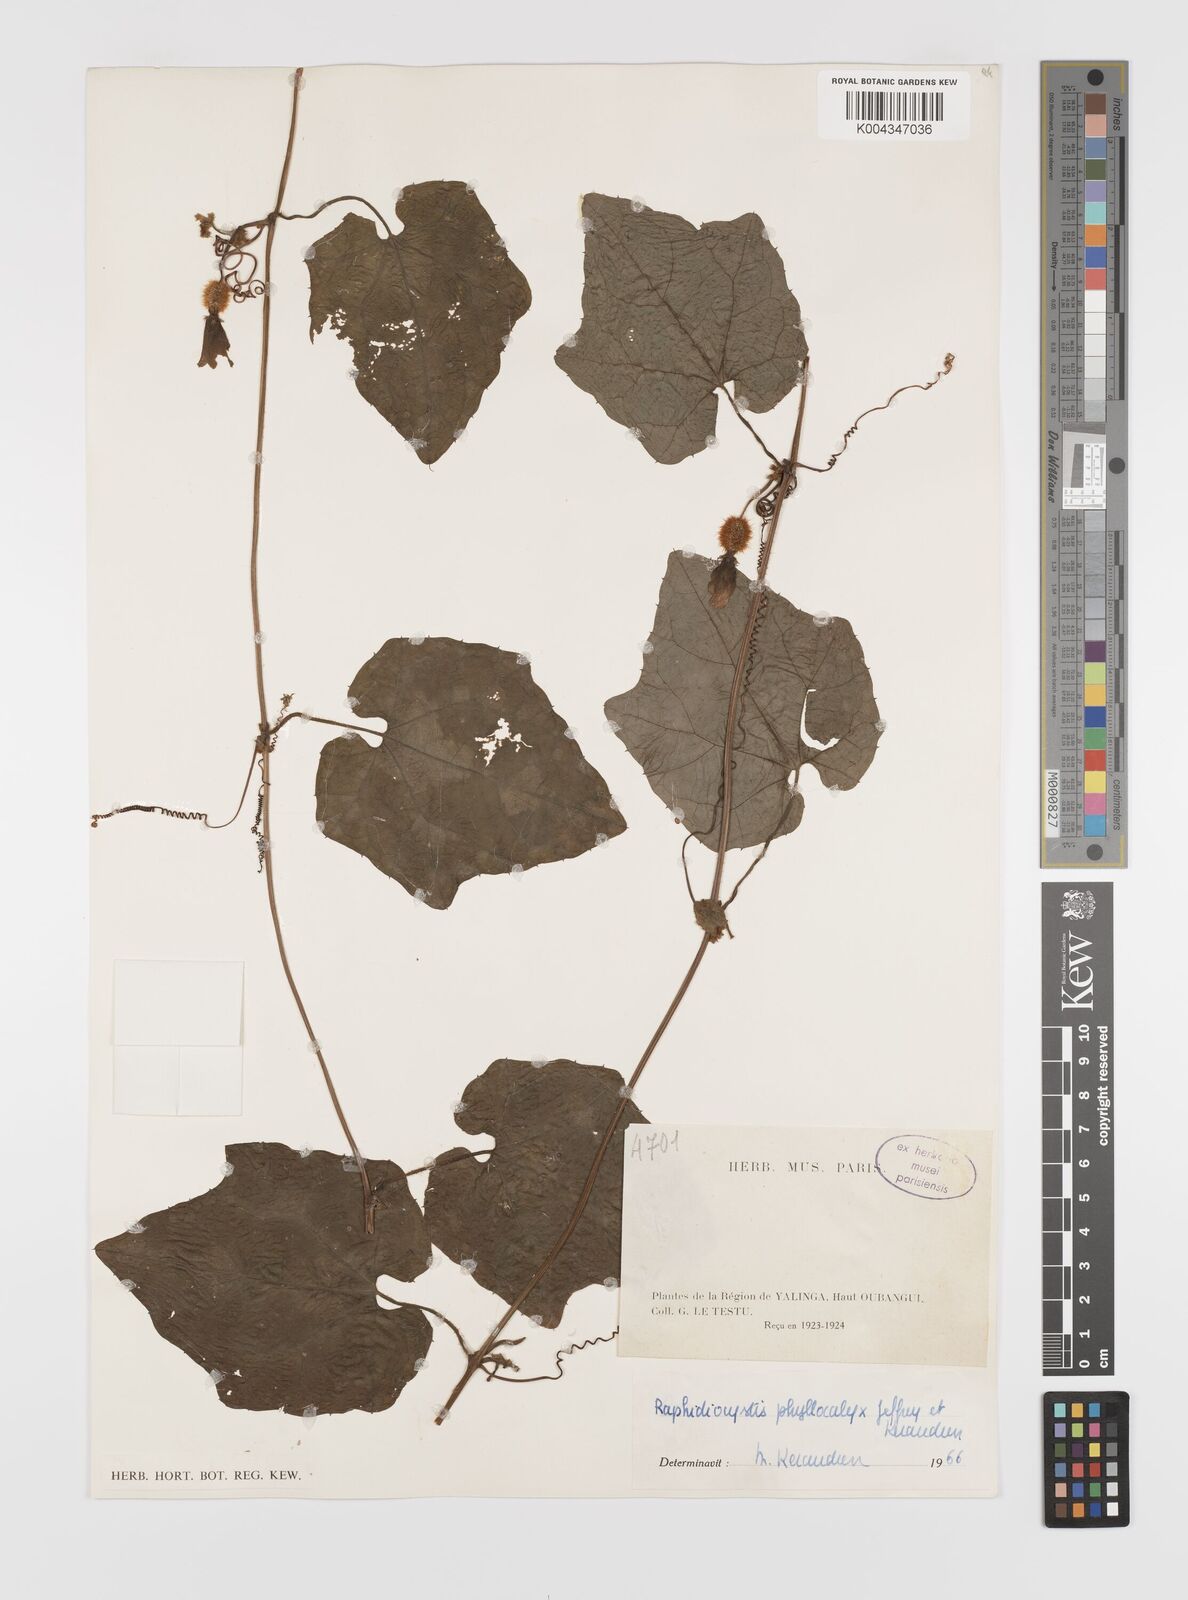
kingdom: Plantae
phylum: Tracheophyta
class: Magnoliopsida
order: Cucurbitales
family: Cucurbitaceae
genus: Raphidiocystis
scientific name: Raphidiocystis phyllocalyx
